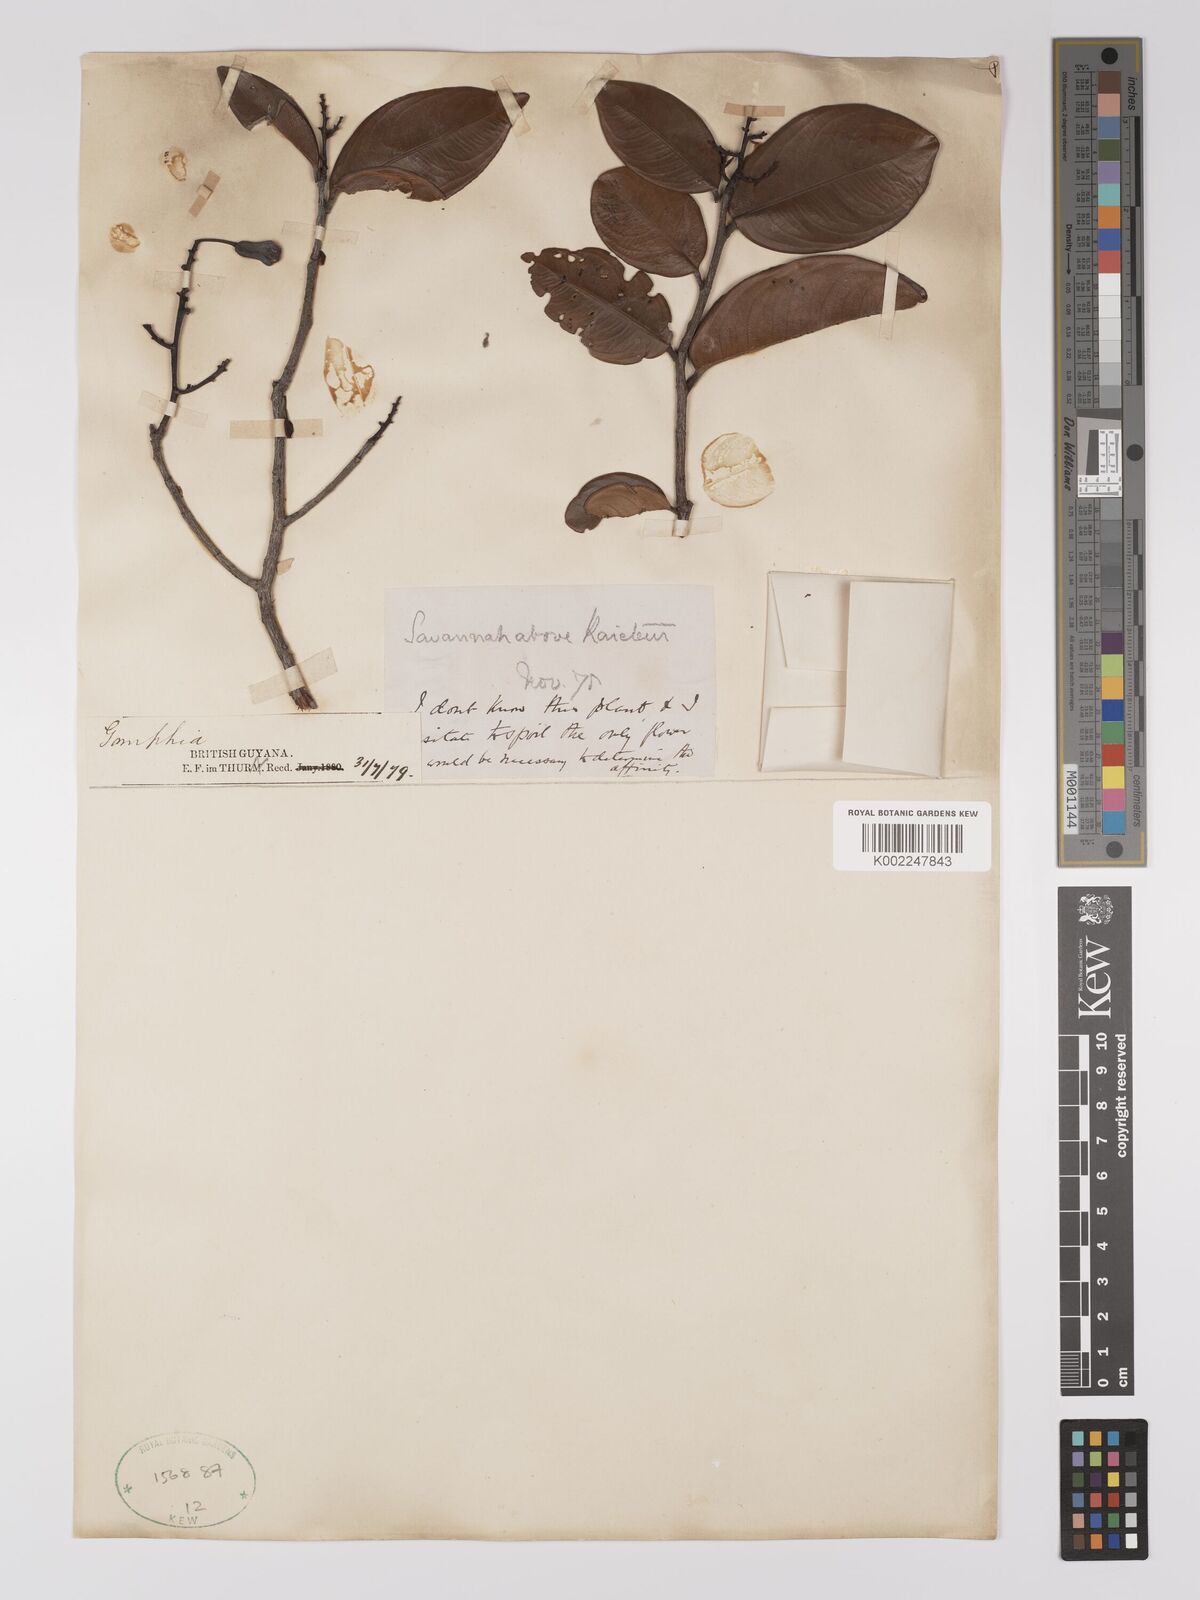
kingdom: Plantae
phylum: Tracheophyta
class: Magnoliopsida
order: Malpighiales
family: Ochnaceae
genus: Ouratea
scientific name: Ouratea
